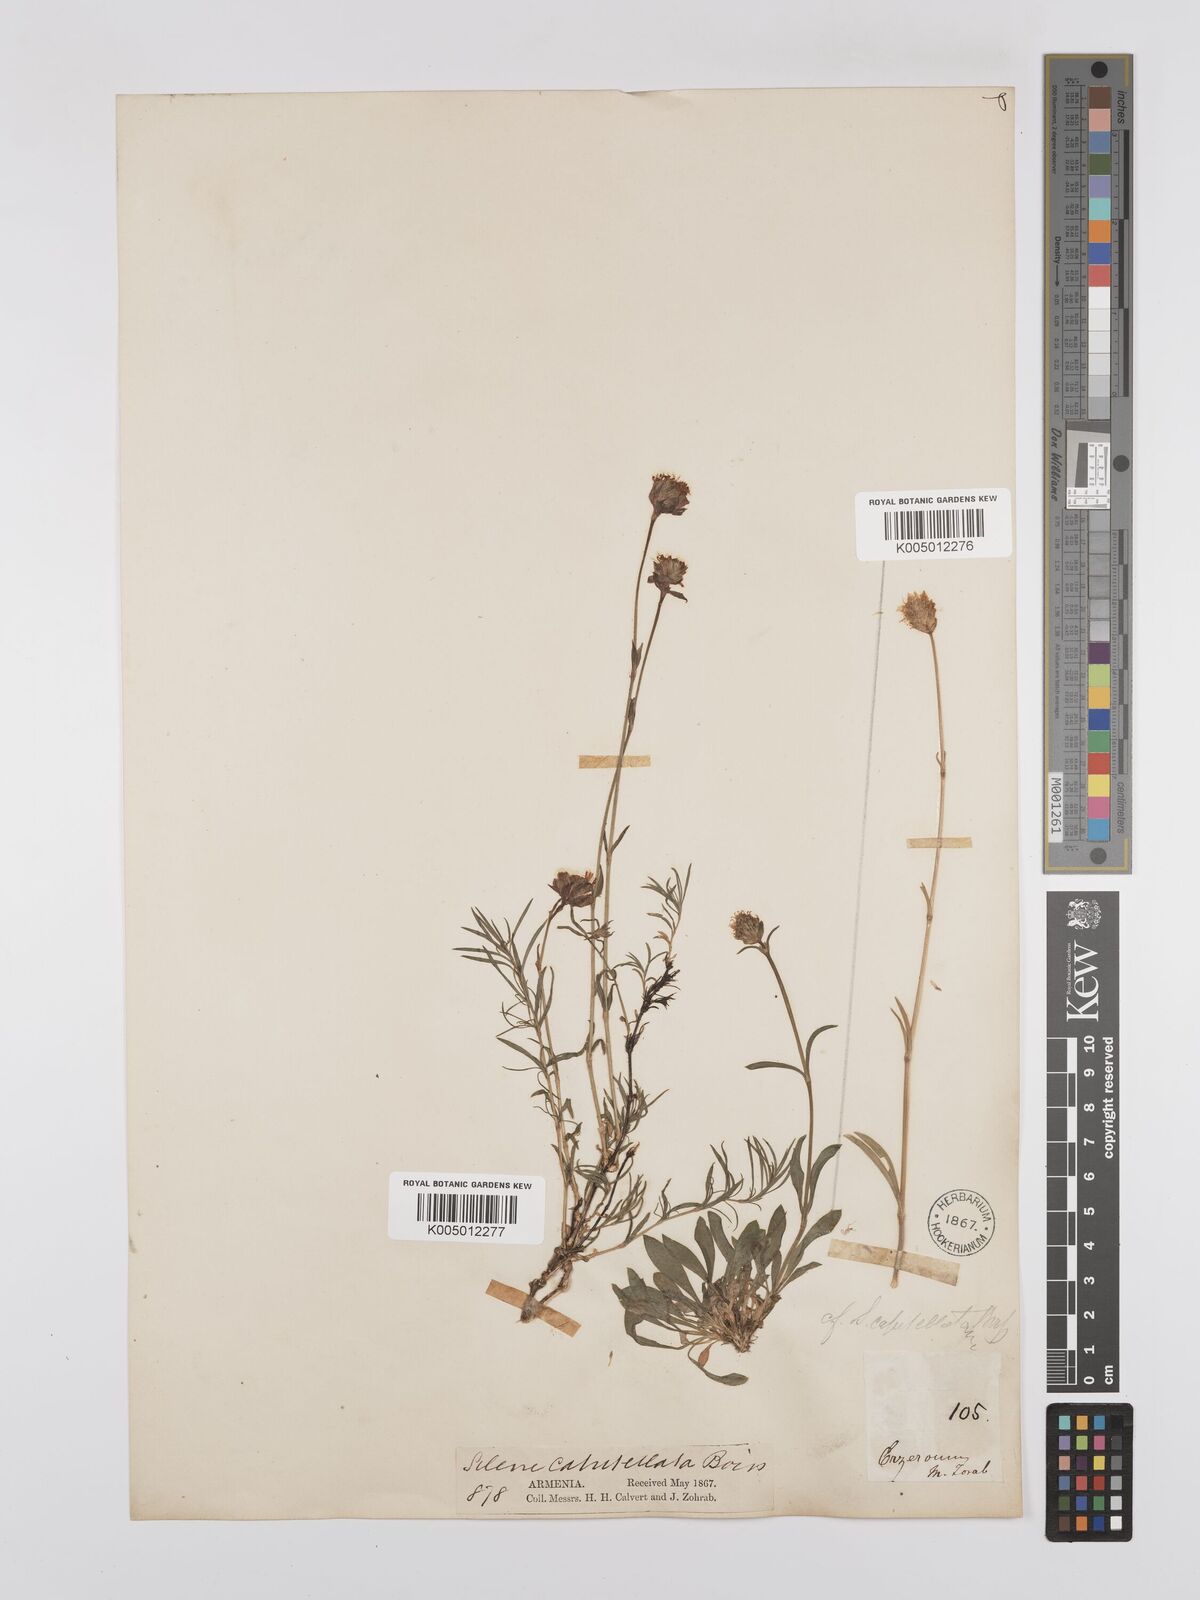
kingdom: Plantae
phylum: Tracheophyta
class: Magnoliopsida
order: Caryophyllales
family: Caryophyllaceae
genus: Silene
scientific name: Silene capitellata
